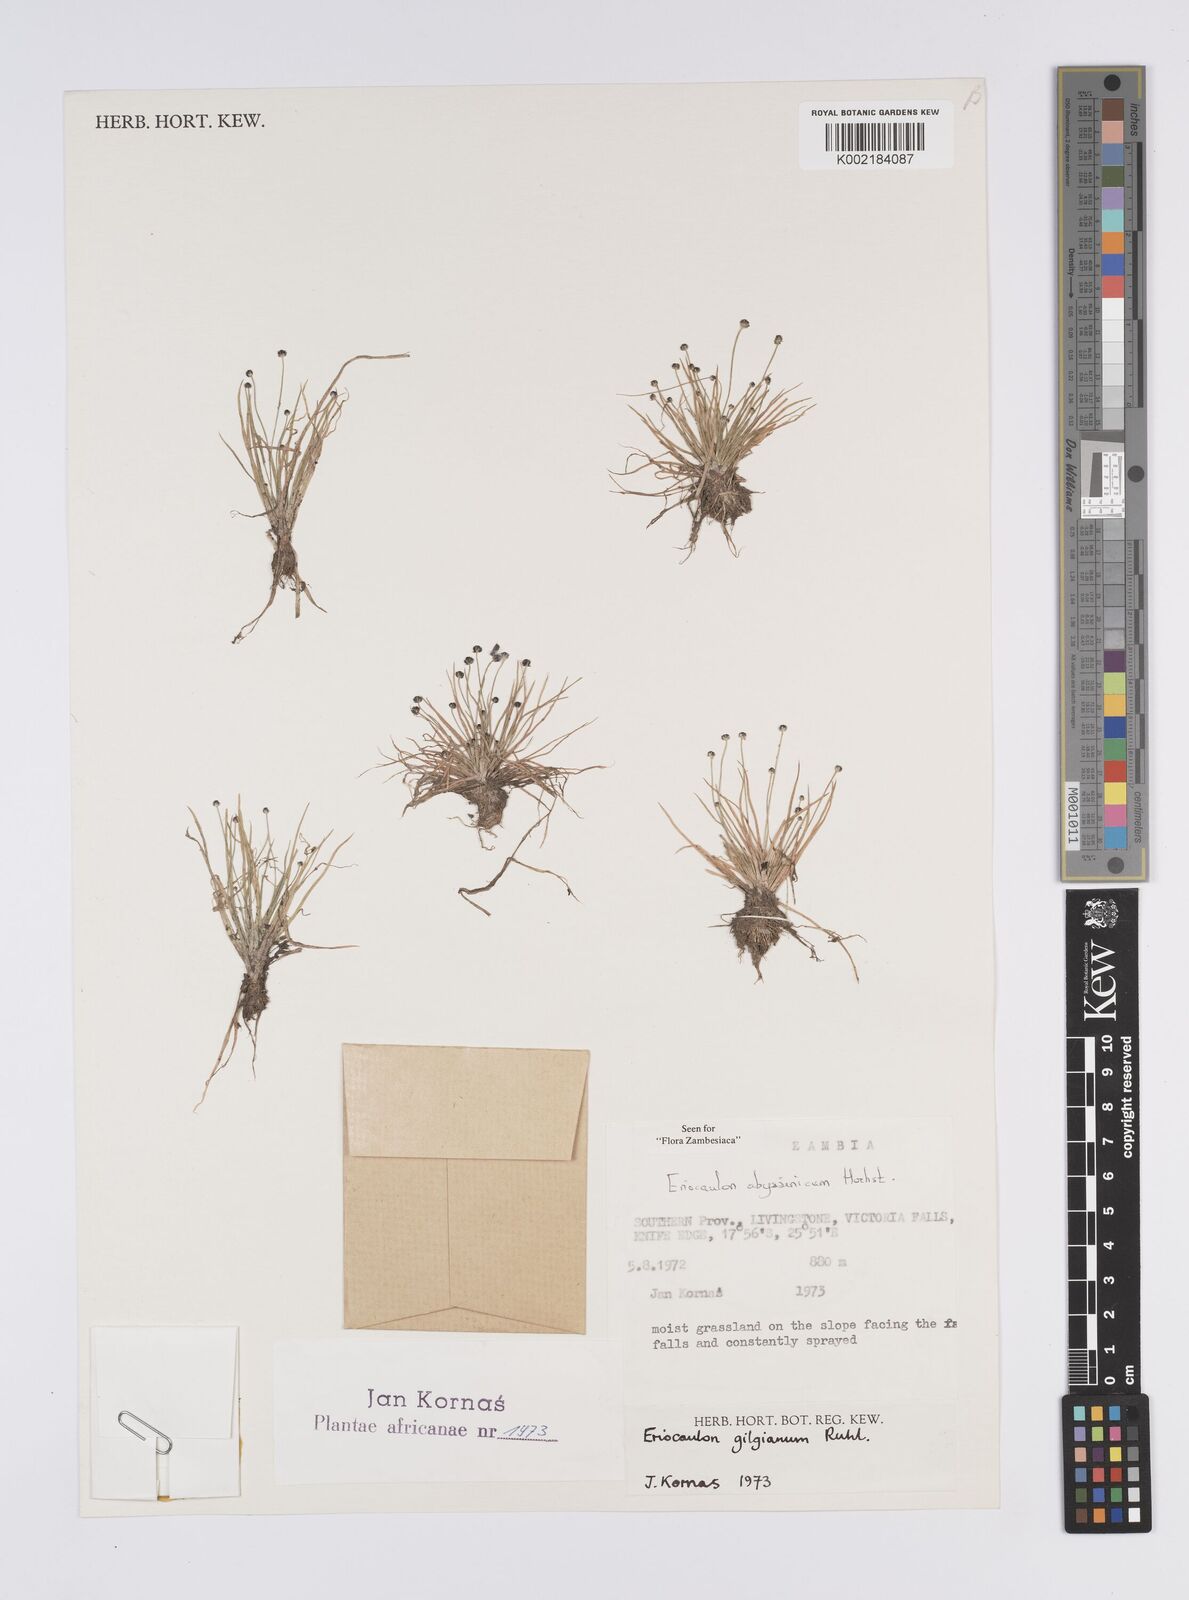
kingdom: Plantae
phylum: Tracheophyta
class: Liliopsida
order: Poales
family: Eriocaulaceae
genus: Eriocaulon
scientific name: Eriocaulon abyssinicum
